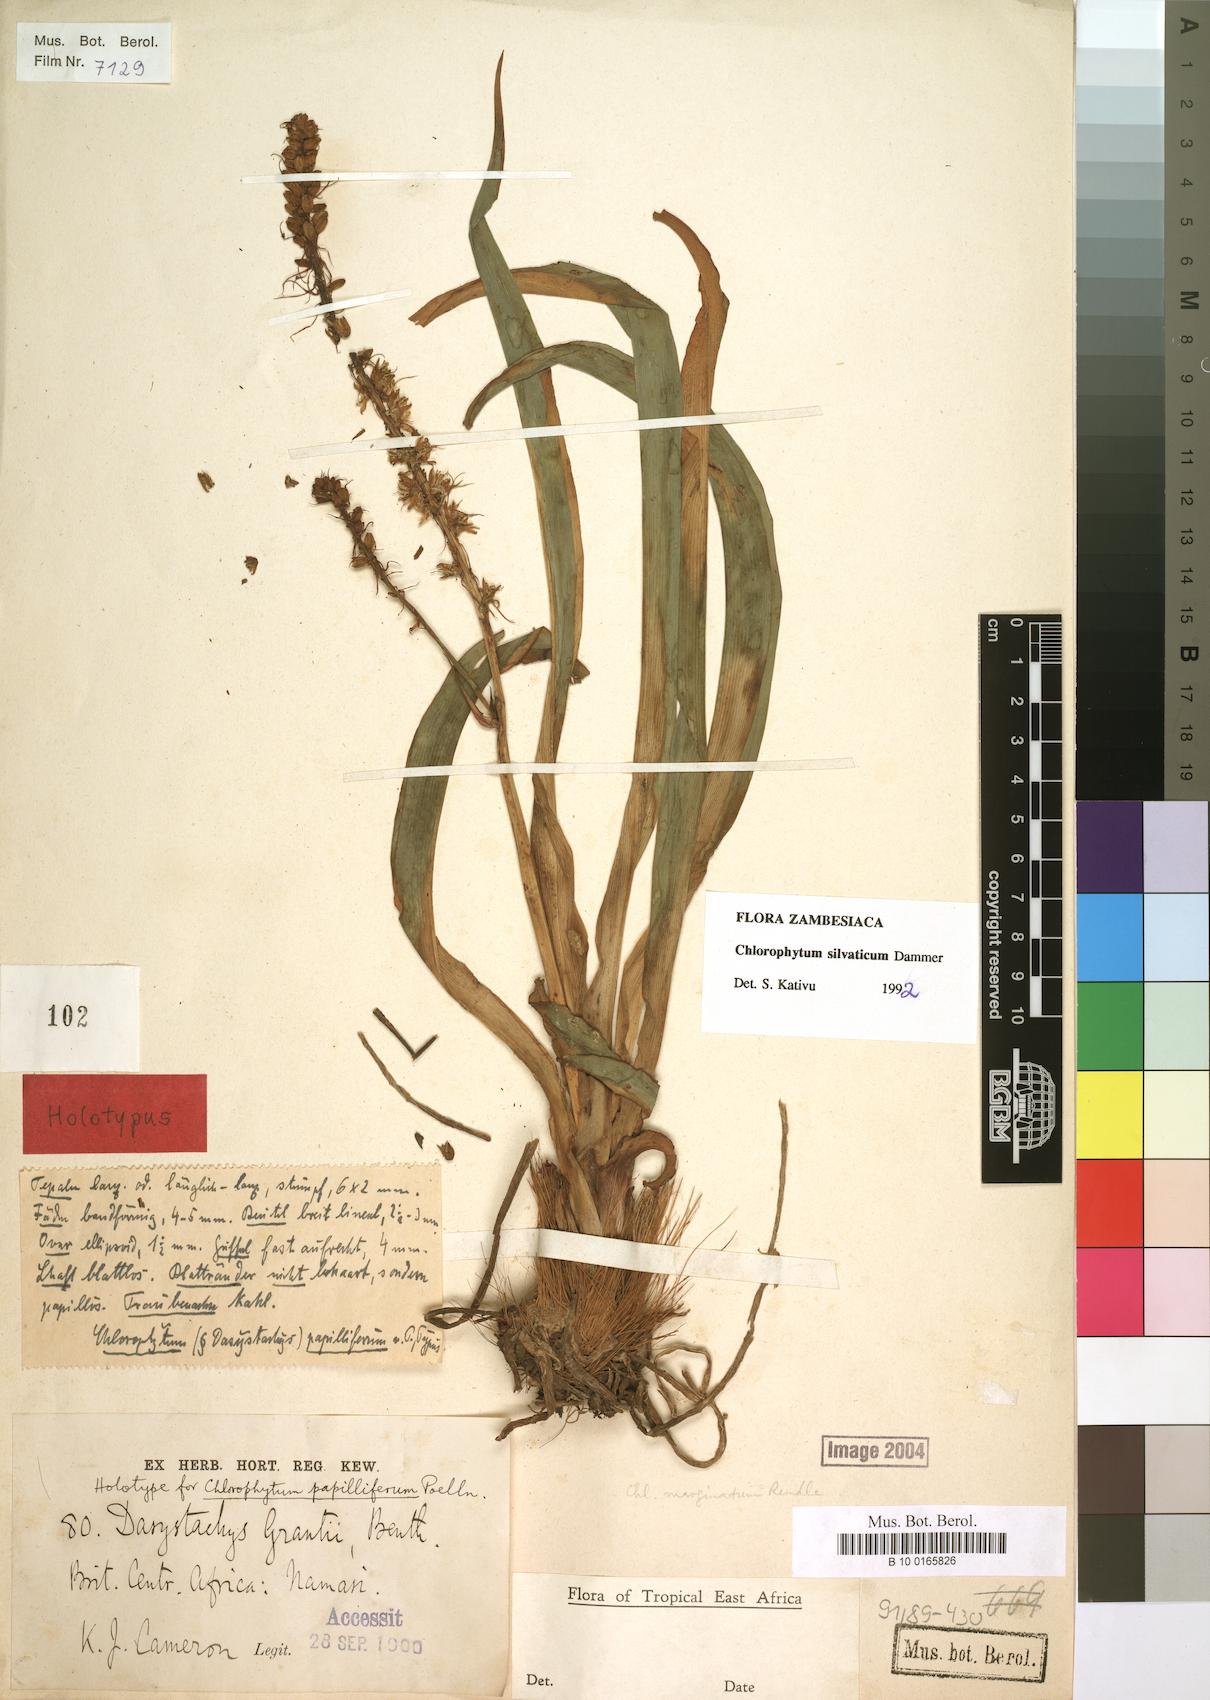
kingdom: Plantae
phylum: Tracheophyta
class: Liliopsida
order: Asparagales
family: Asparagaceae
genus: Chlorophytum
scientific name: Chlorophytum africanum
